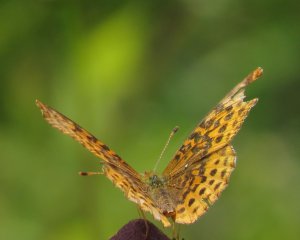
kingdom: Animalia
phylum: Arthropoda
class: Insecta
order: Lepidoptera
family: Nymphalidae
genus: Speyeria
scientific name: Speyeria cybele
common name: Great Spangled Fritillary
